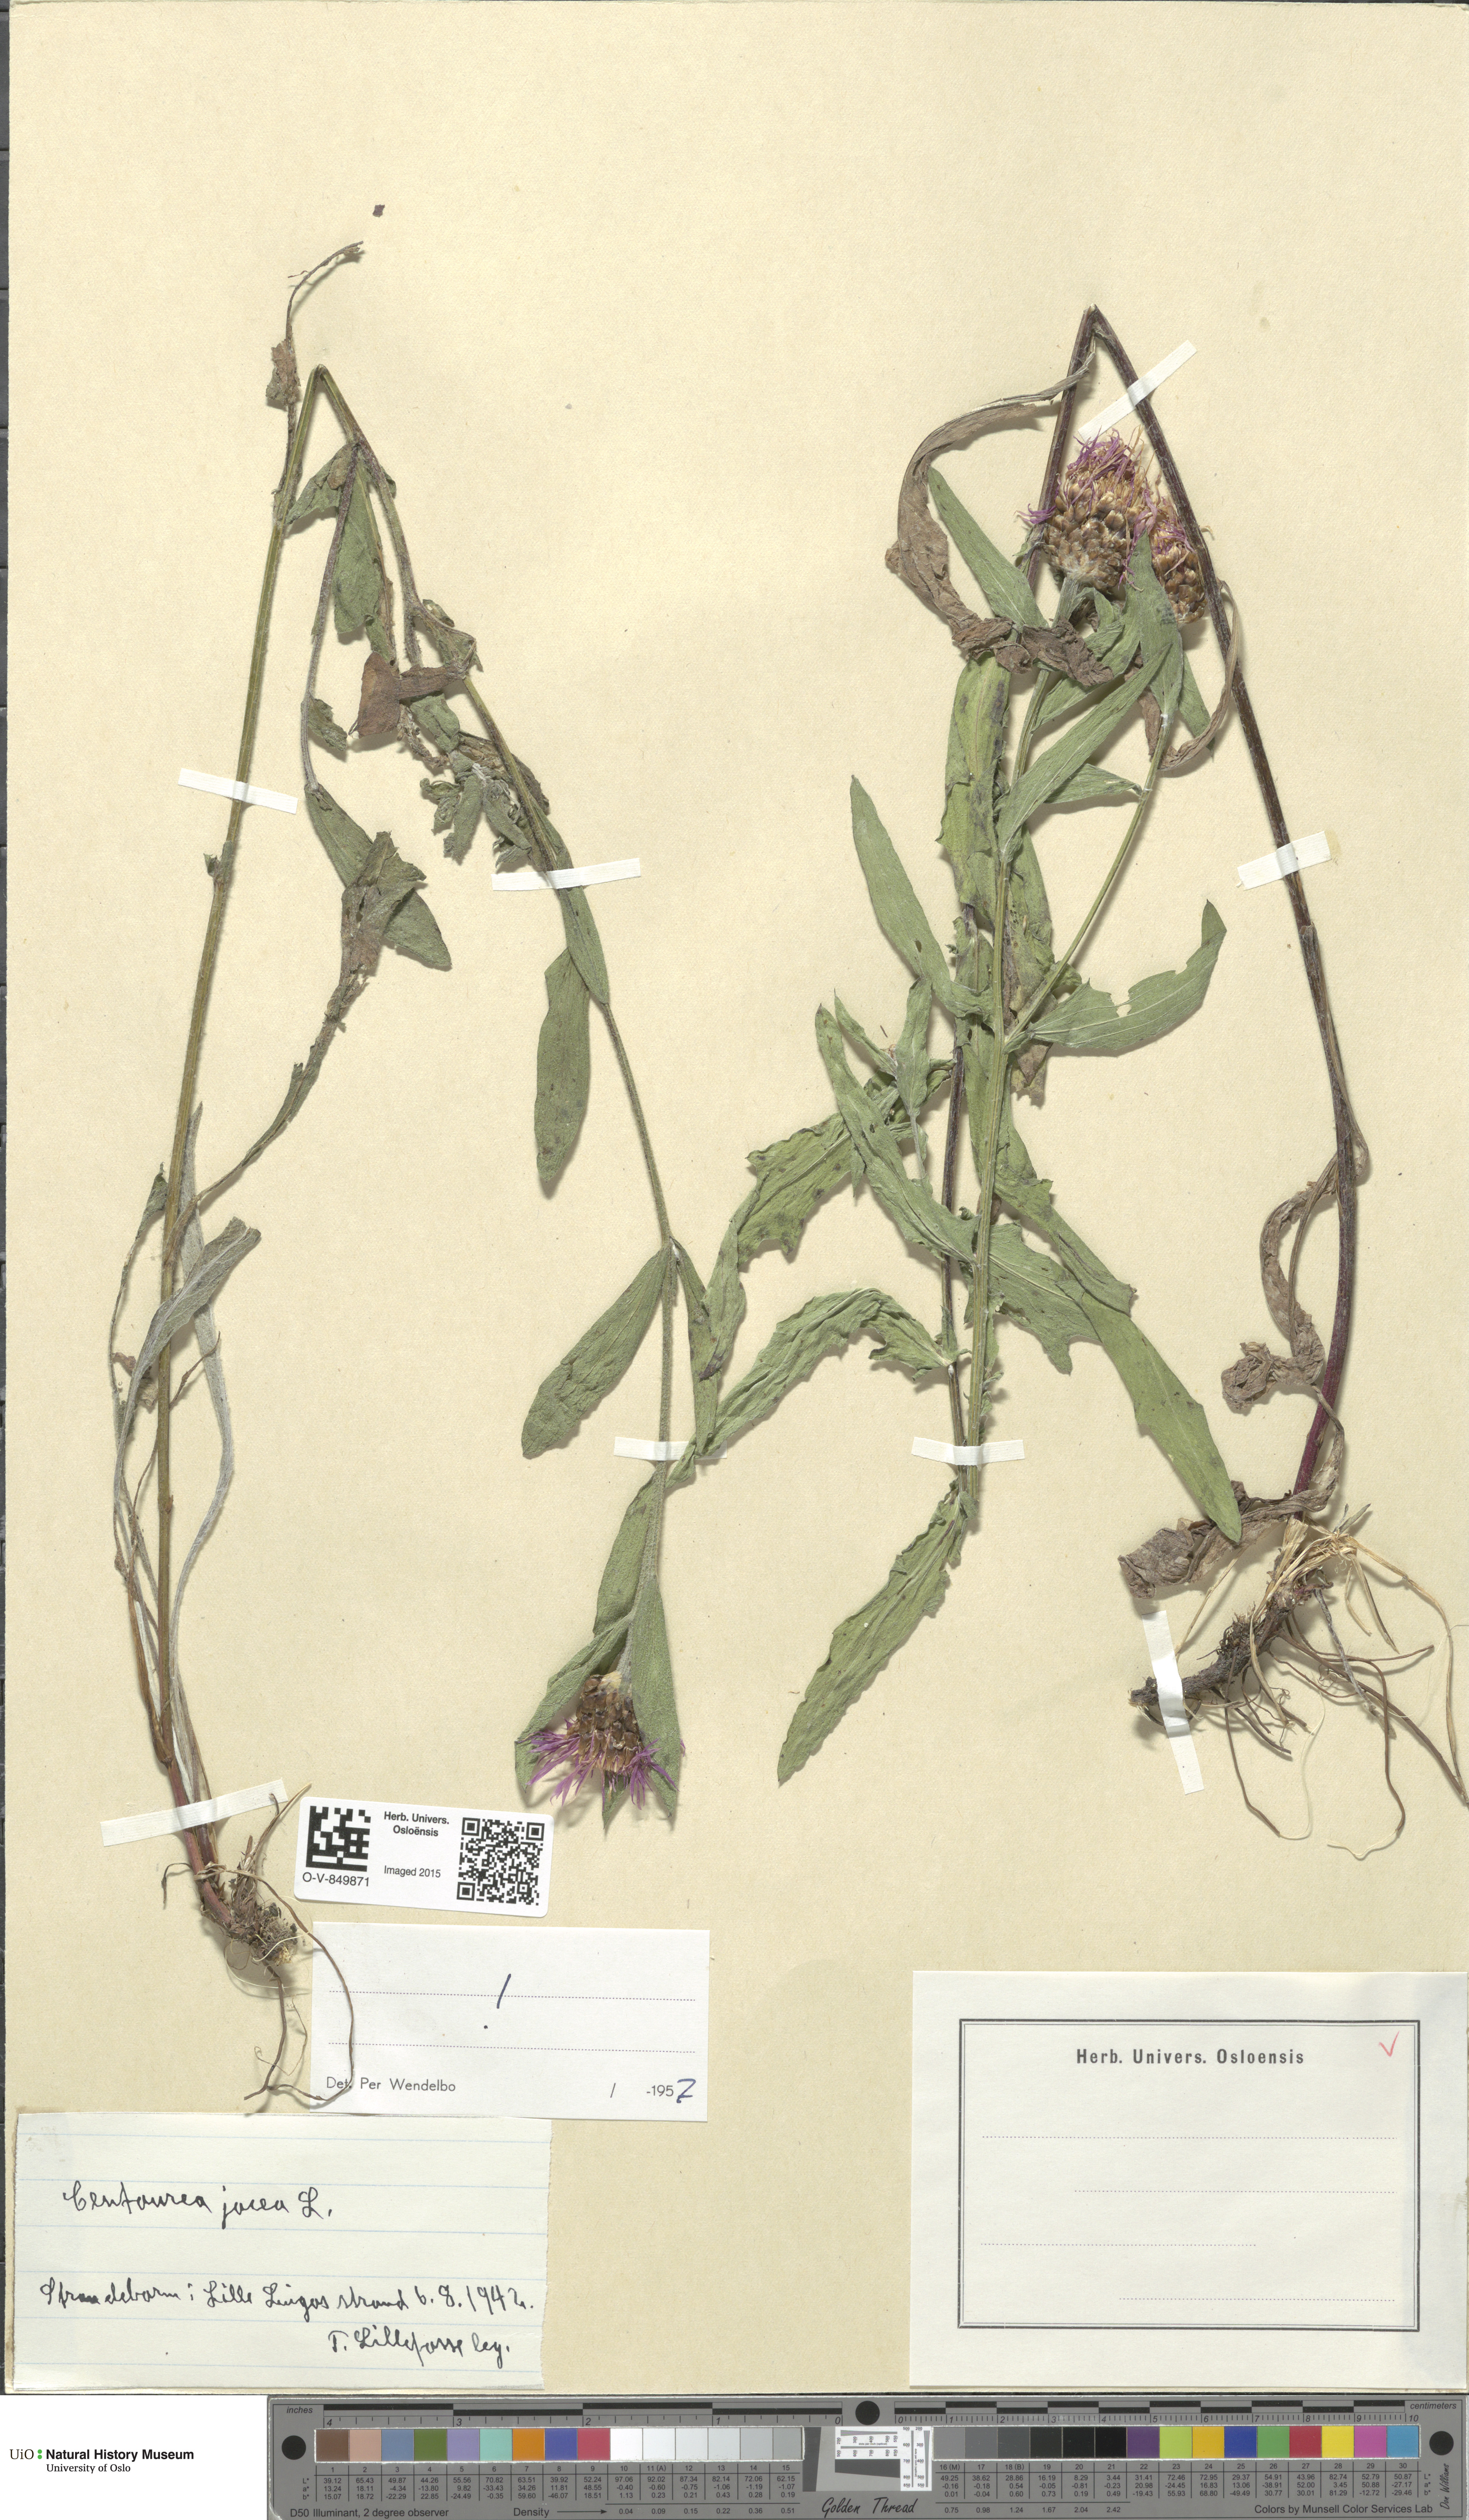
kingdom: Plantae
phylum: Tracheophyta
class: Magnoliopsida
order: Asterales
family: Asteraceae
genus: Centaurea
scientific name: Centaurea jacea
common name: Brown knapweed
